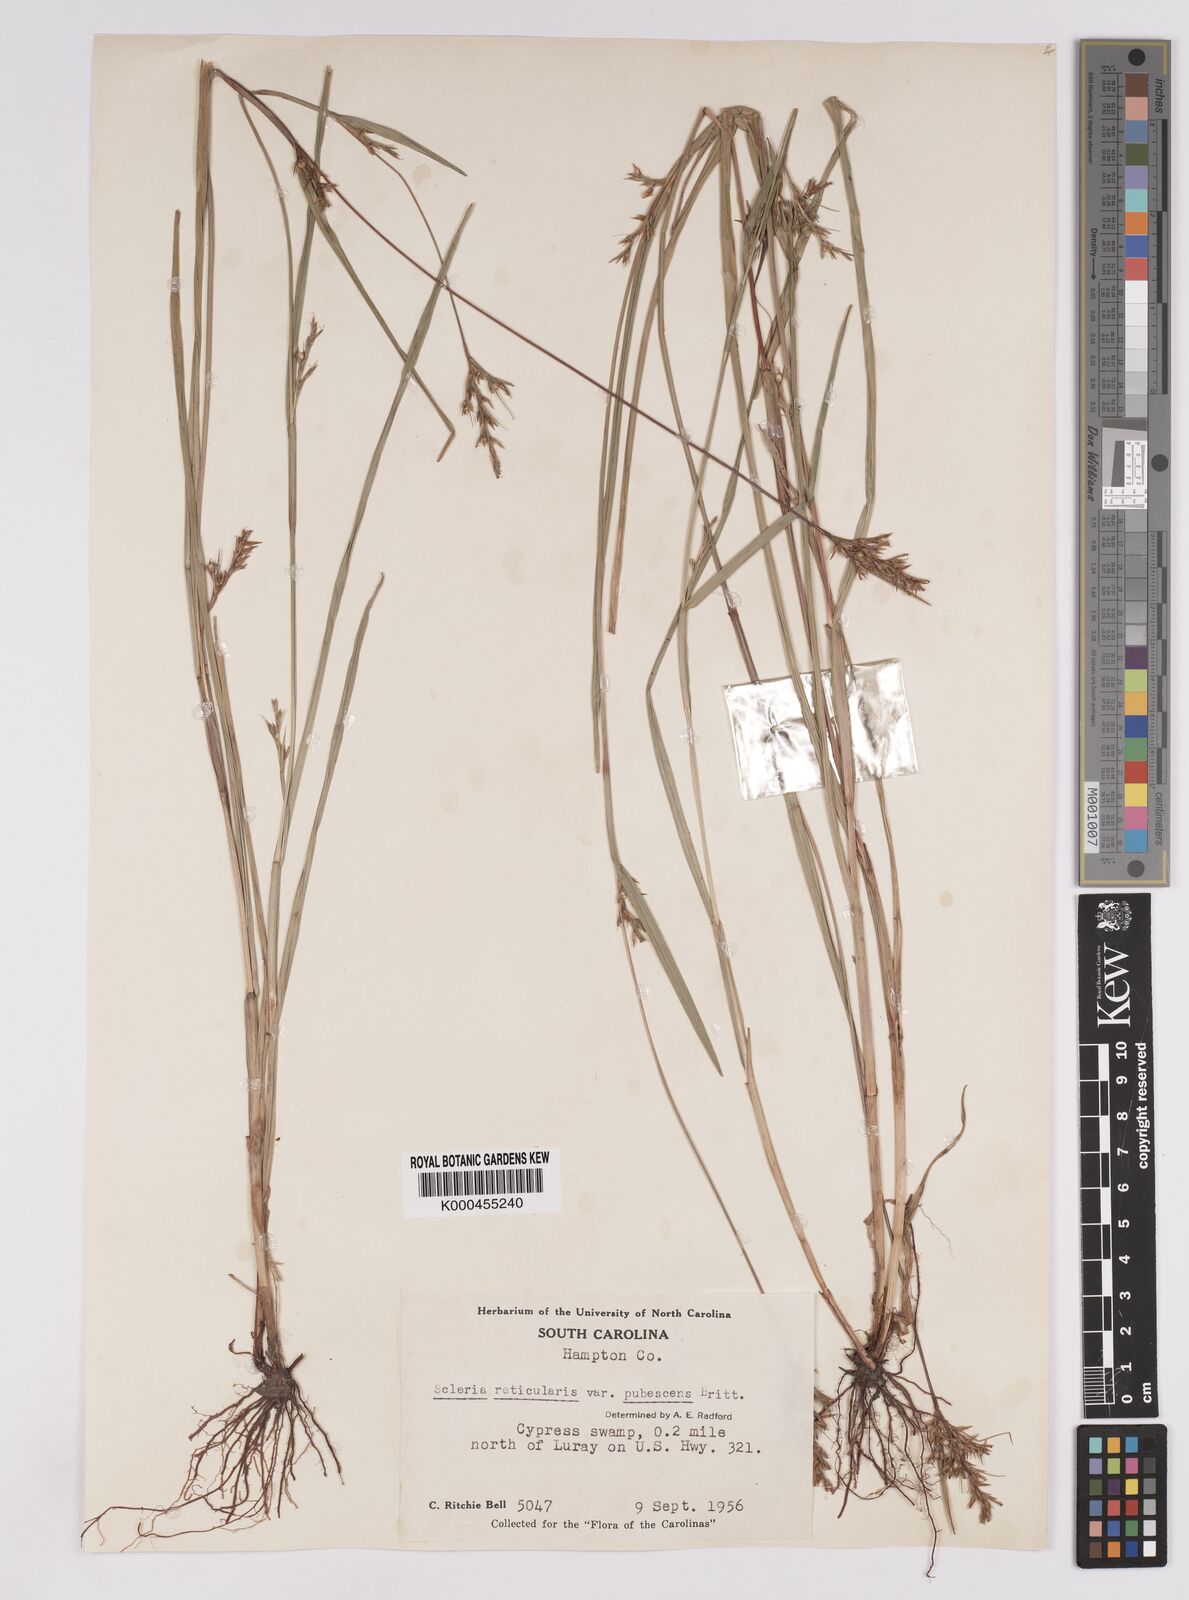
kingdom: Plantae
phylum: Tracheophyta
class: Liliopsida
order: Poales
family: Cyperaceae
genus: Scleria
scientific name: Scleria
